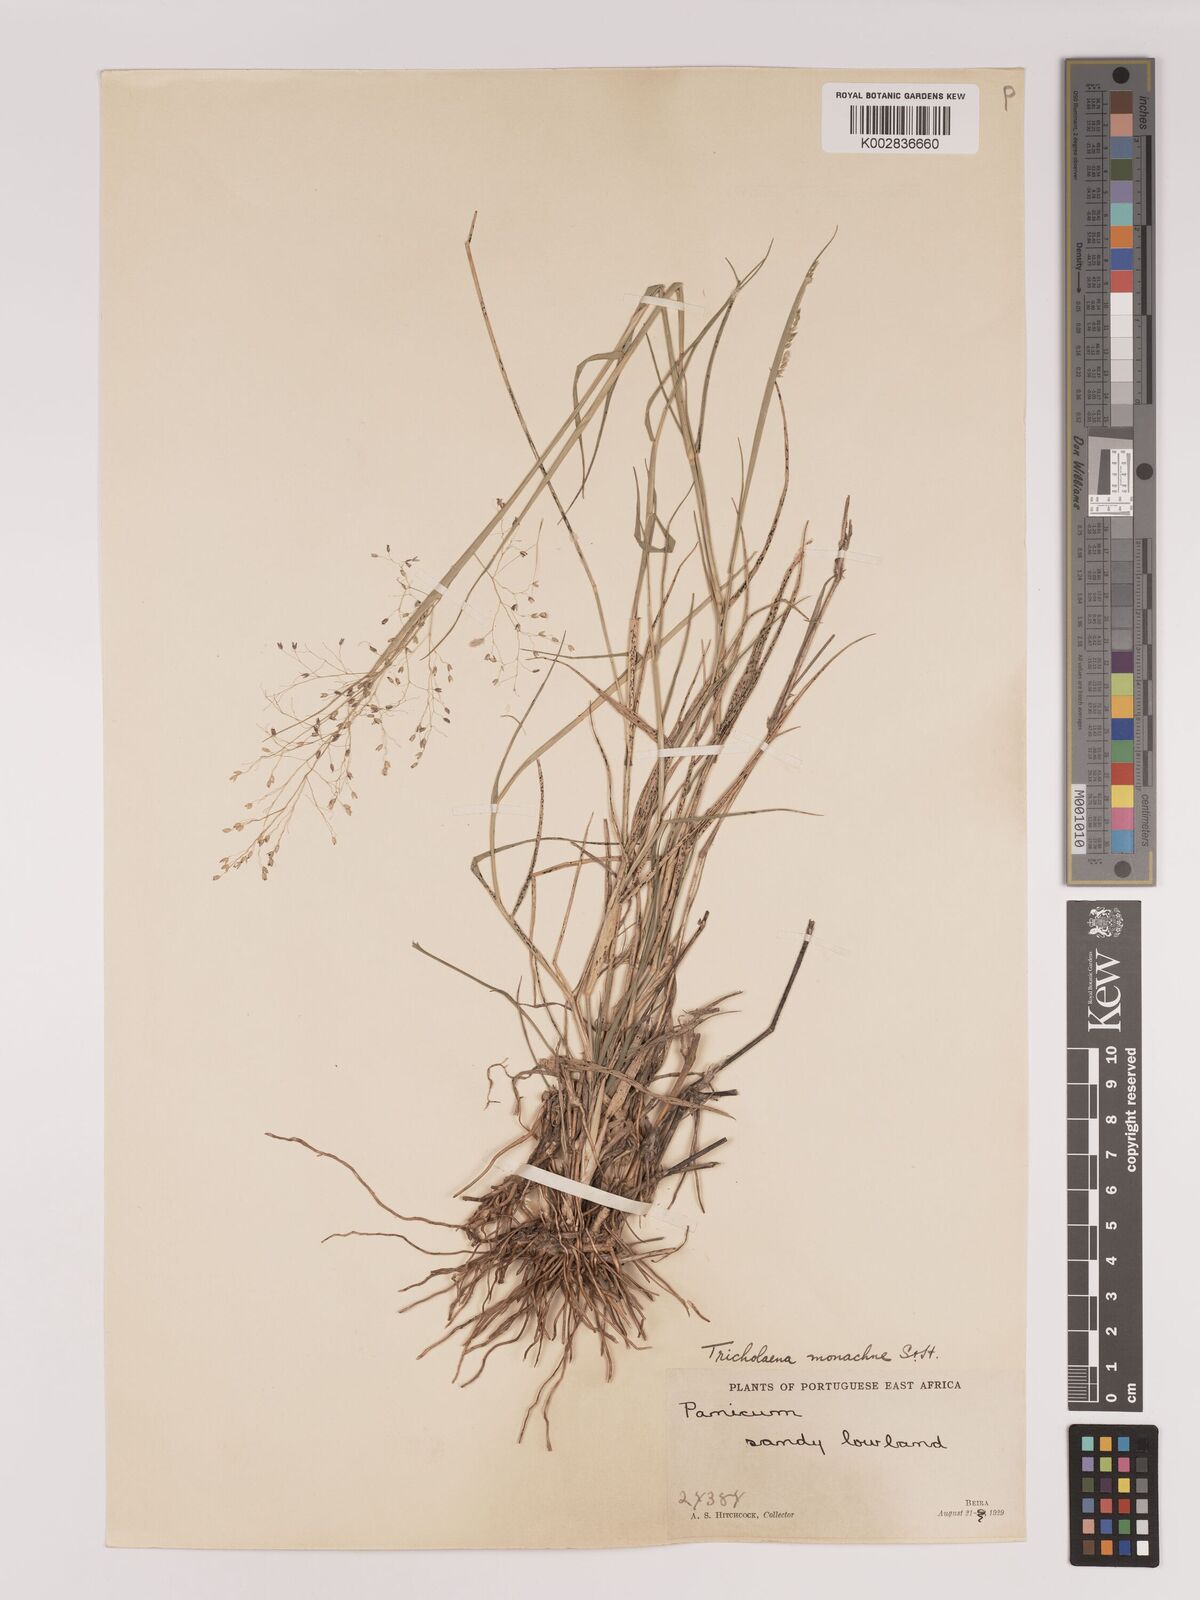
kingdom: Plantae
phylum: Tracheophyta
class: Liliopsida
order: Poales
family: Poaceae
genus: Tricholaena
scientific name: Tricholaena monachne
